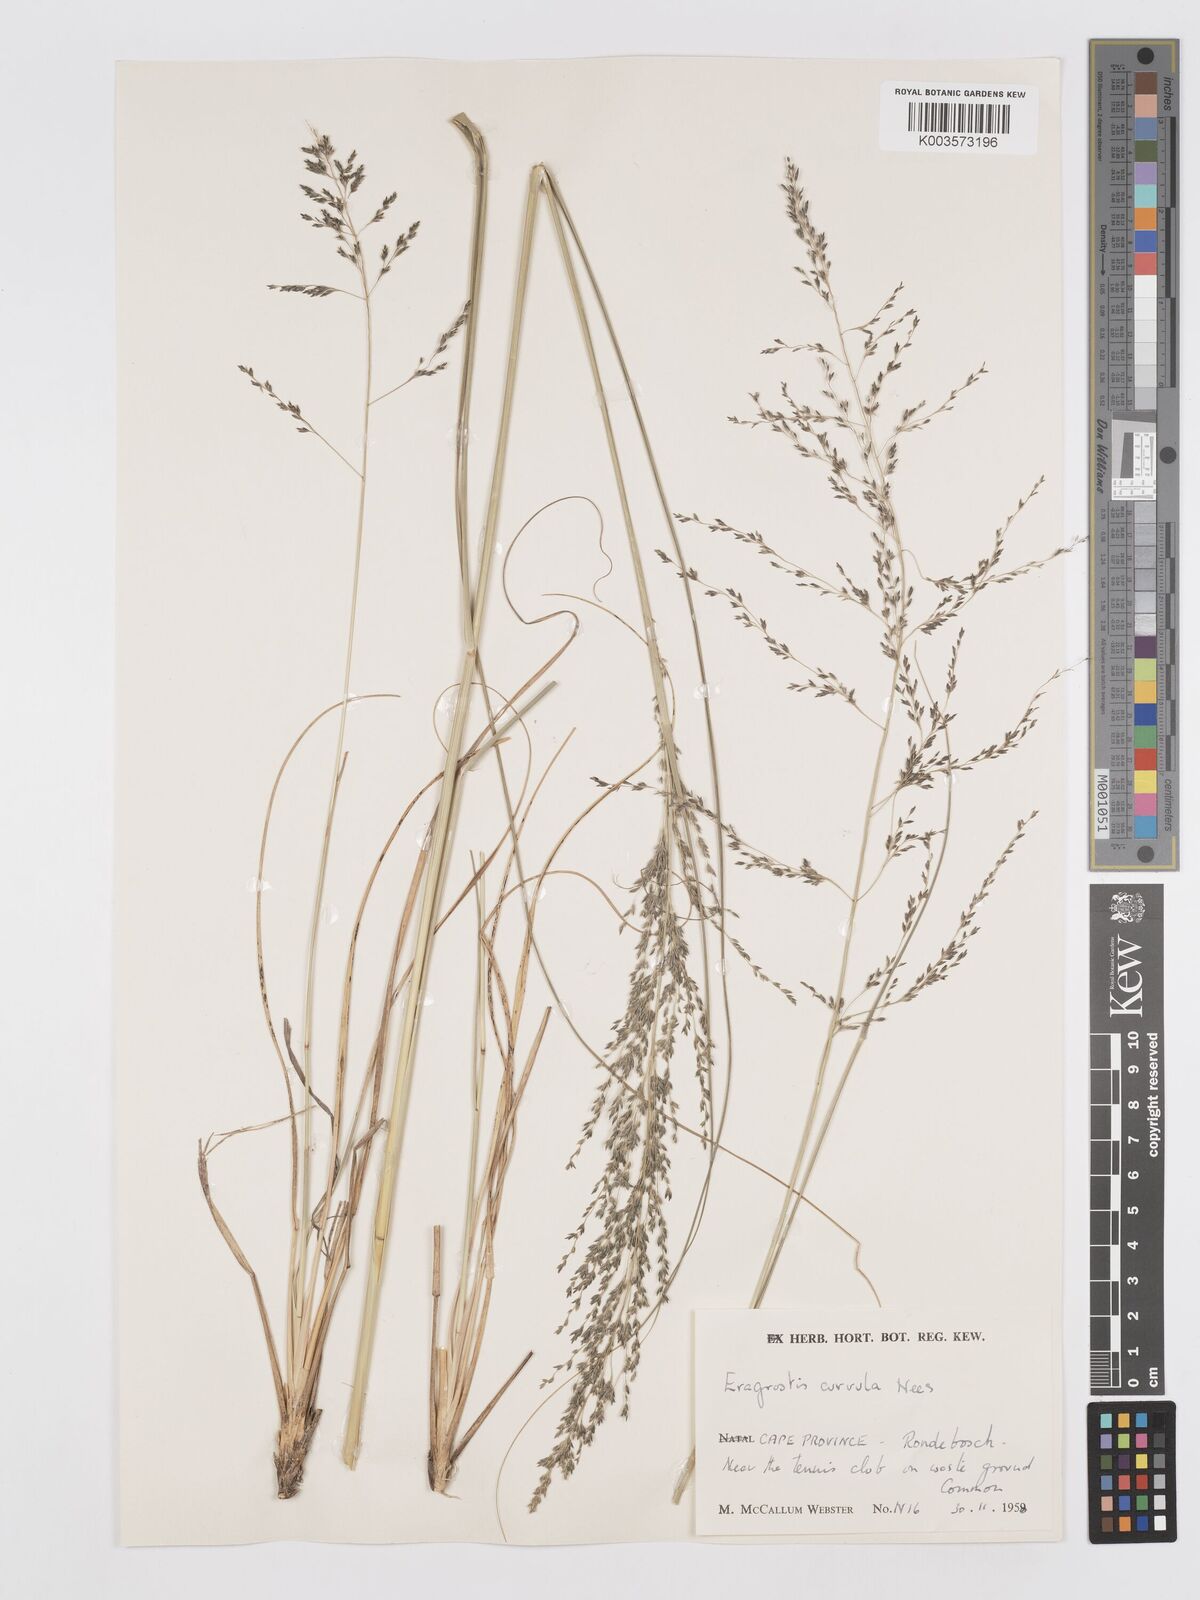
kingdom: Plantae
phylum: Tracheophyta
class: Liliopsida
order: Poales
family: Poaceae
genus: Eragrostis
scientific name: Eragrostis curvula
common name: African love-grass
